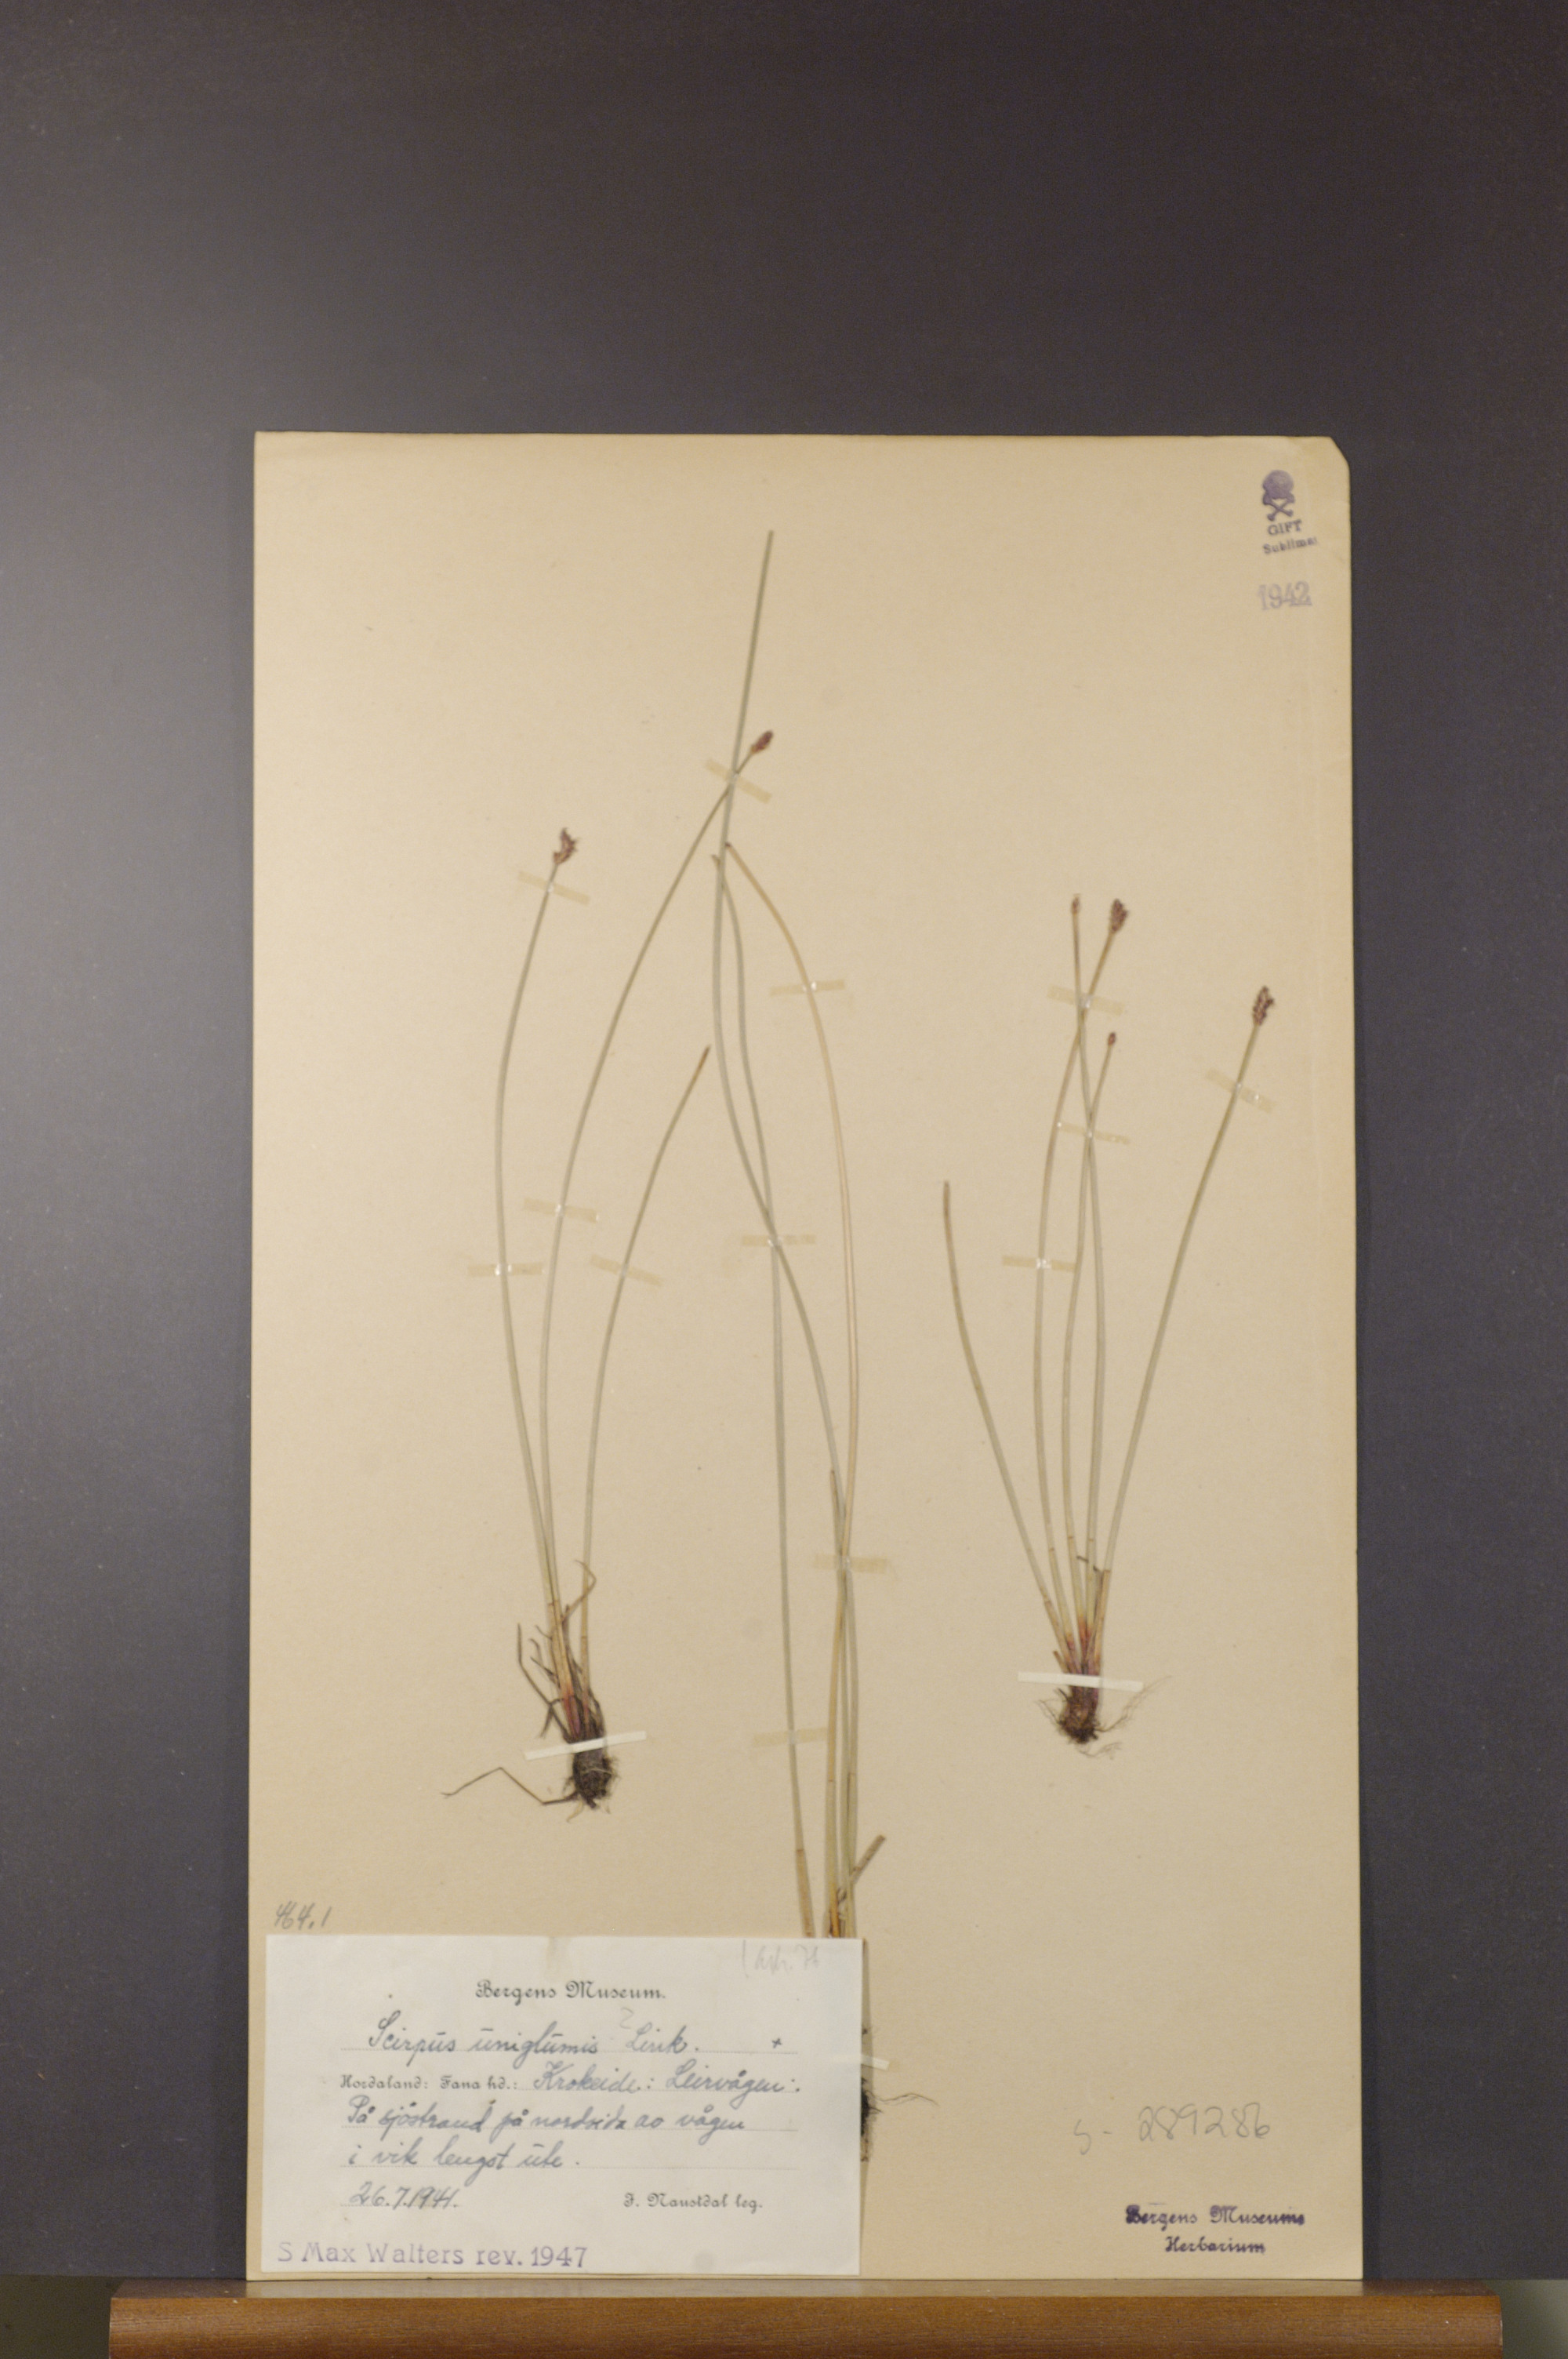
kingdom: Plantae
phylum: Tracheophyta
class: Liliopsida
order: Poales
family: Cyperaceae
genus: Eleocharis
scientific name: Eleocharis uniglumis
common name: Slender spike-rush
